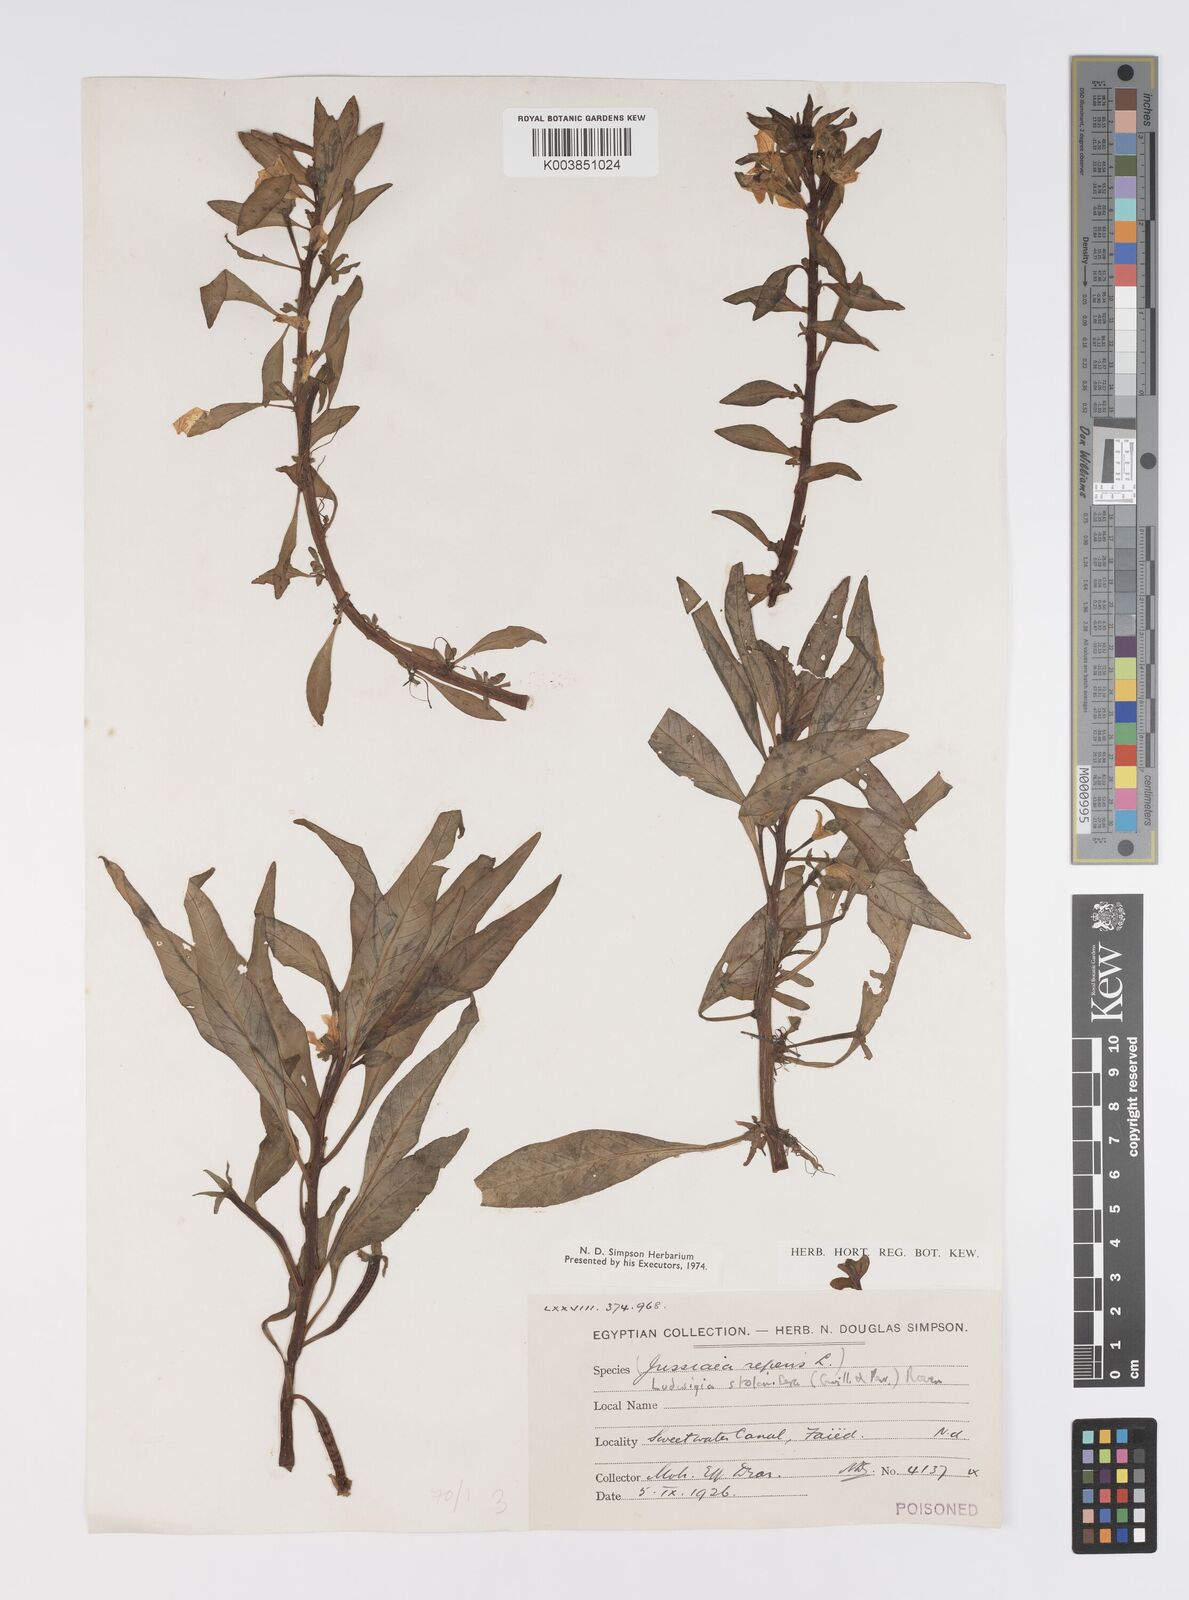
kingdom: Plantae
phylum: Tracheophyta
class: Magnoliopsida
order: Myrtales
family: Onagraceae
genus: Ludwigia
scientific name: Ludwigia adscendens
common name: Creeping water primrose
